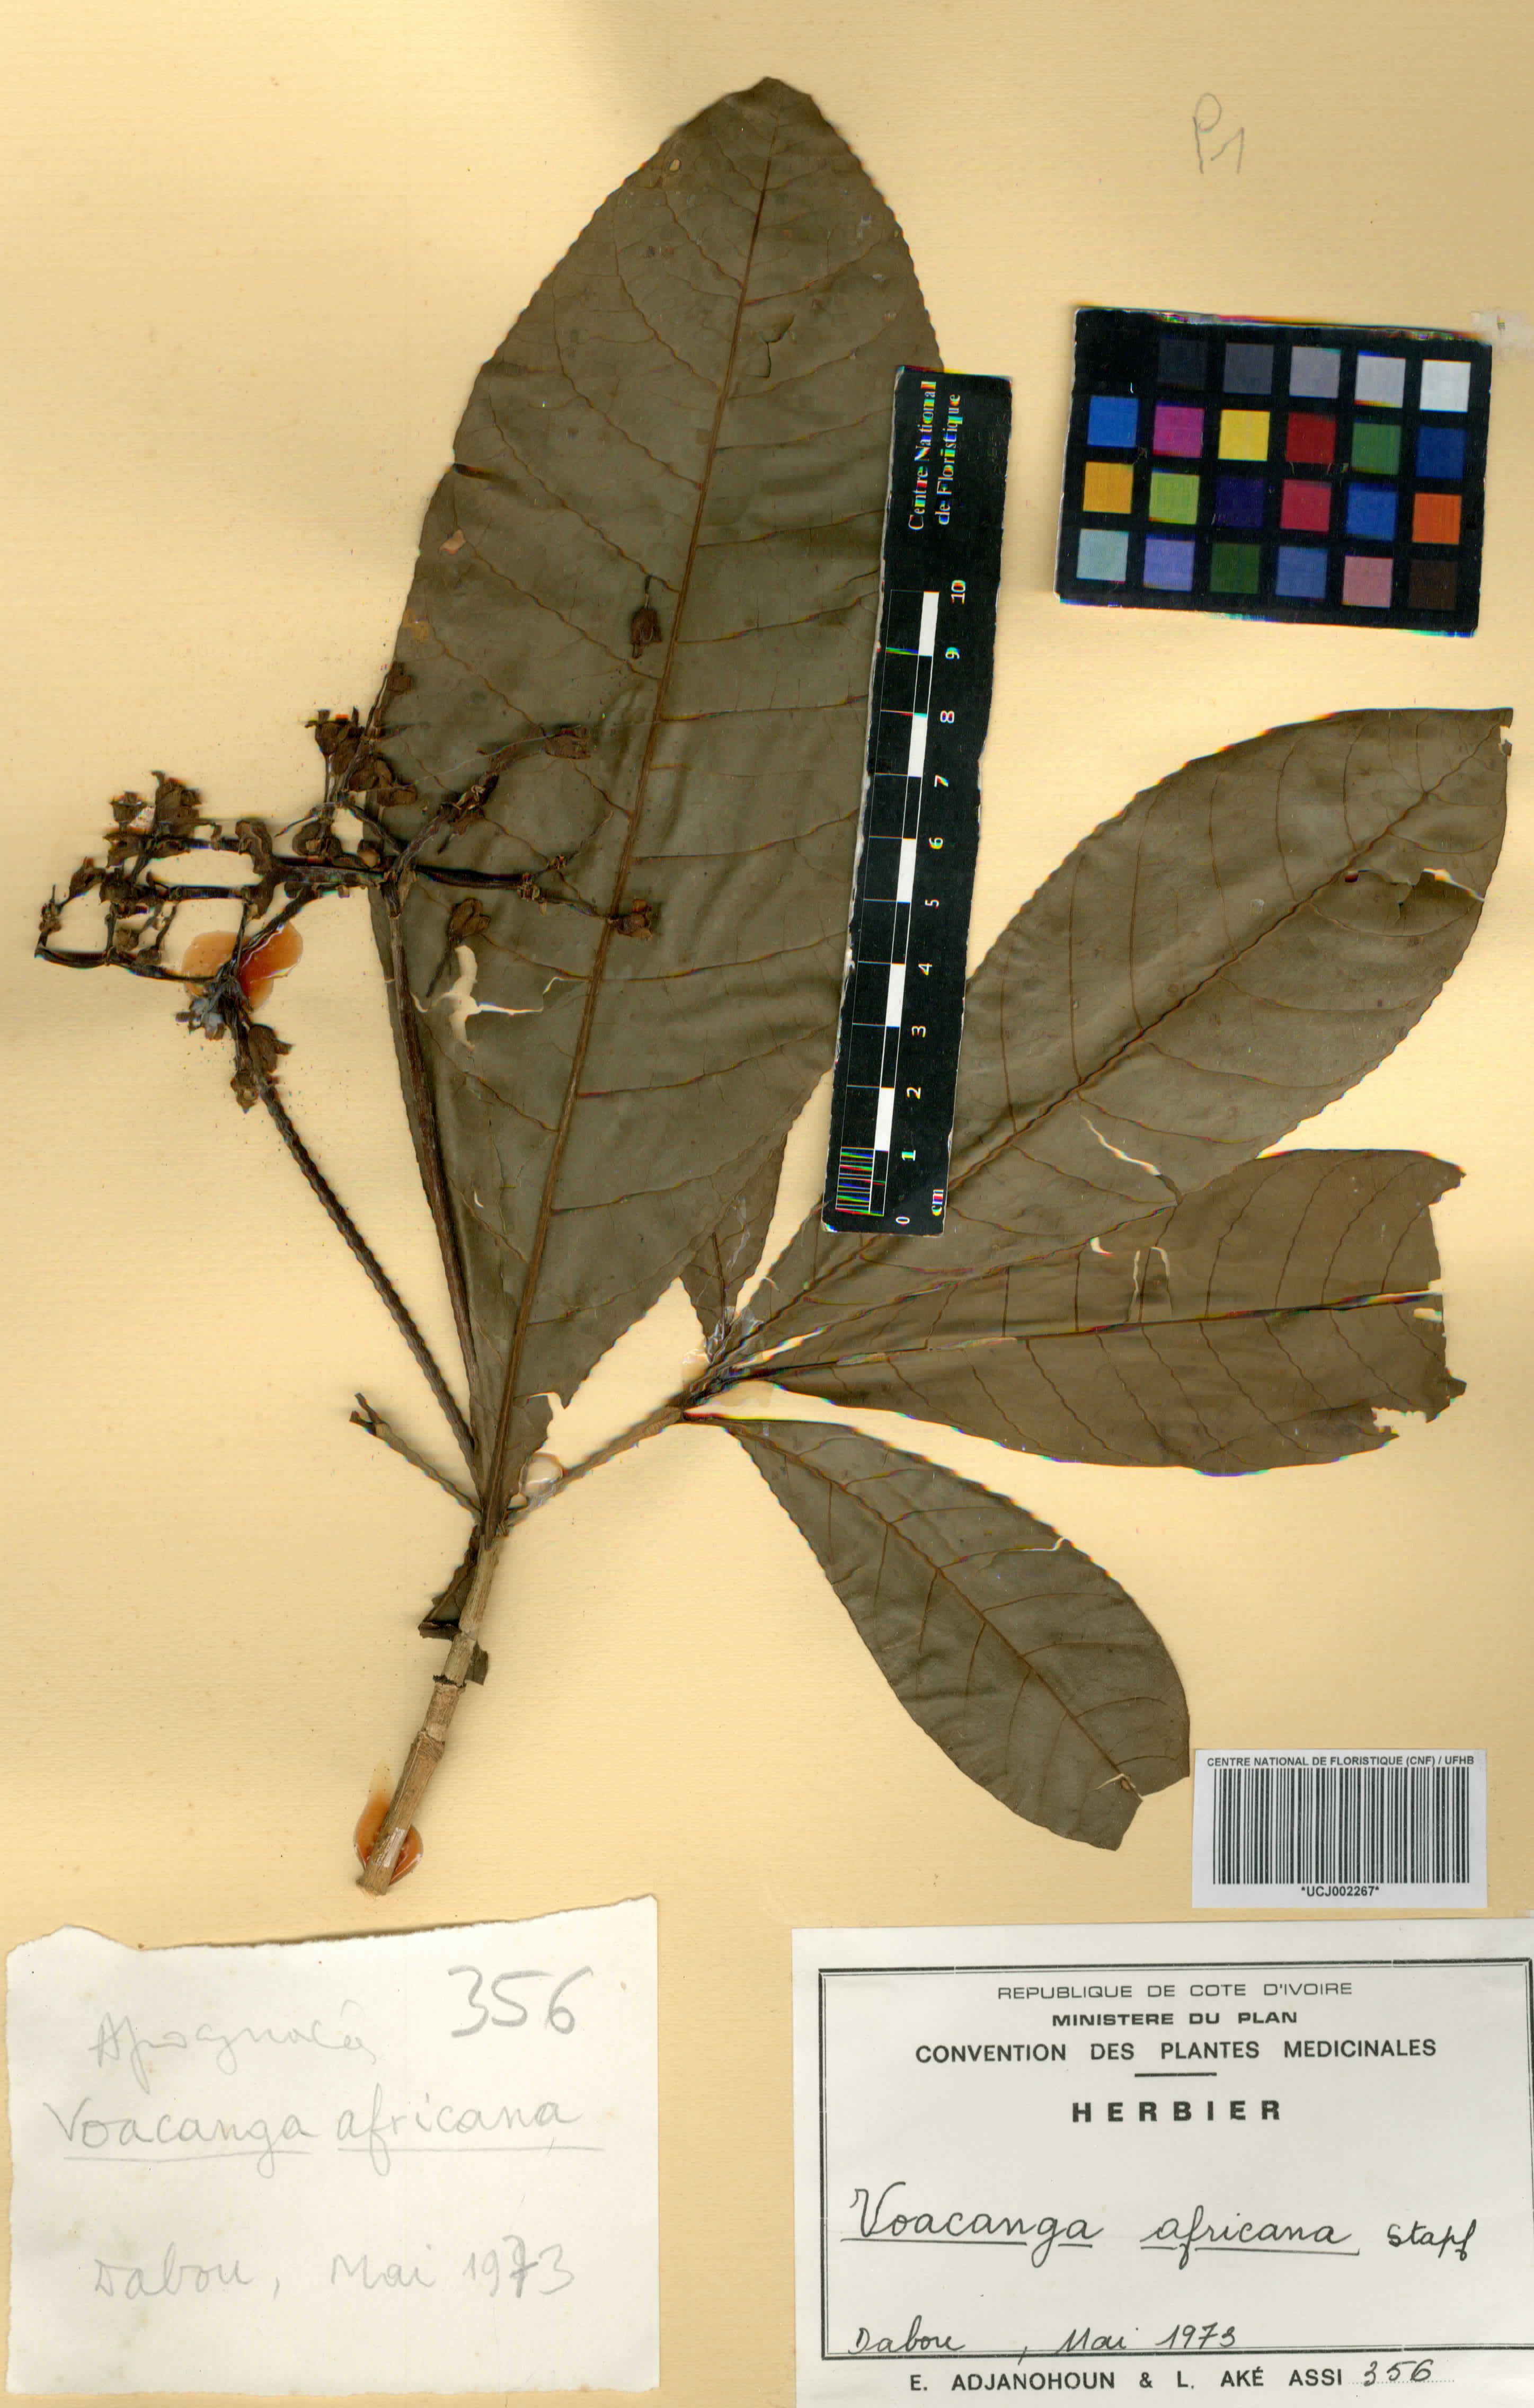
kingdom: Plantae
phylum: Tracheophyta
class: Magnoliopsida
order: Gentianales
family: Apocynaceae
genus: Voacanga
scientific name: Voacanga africana
